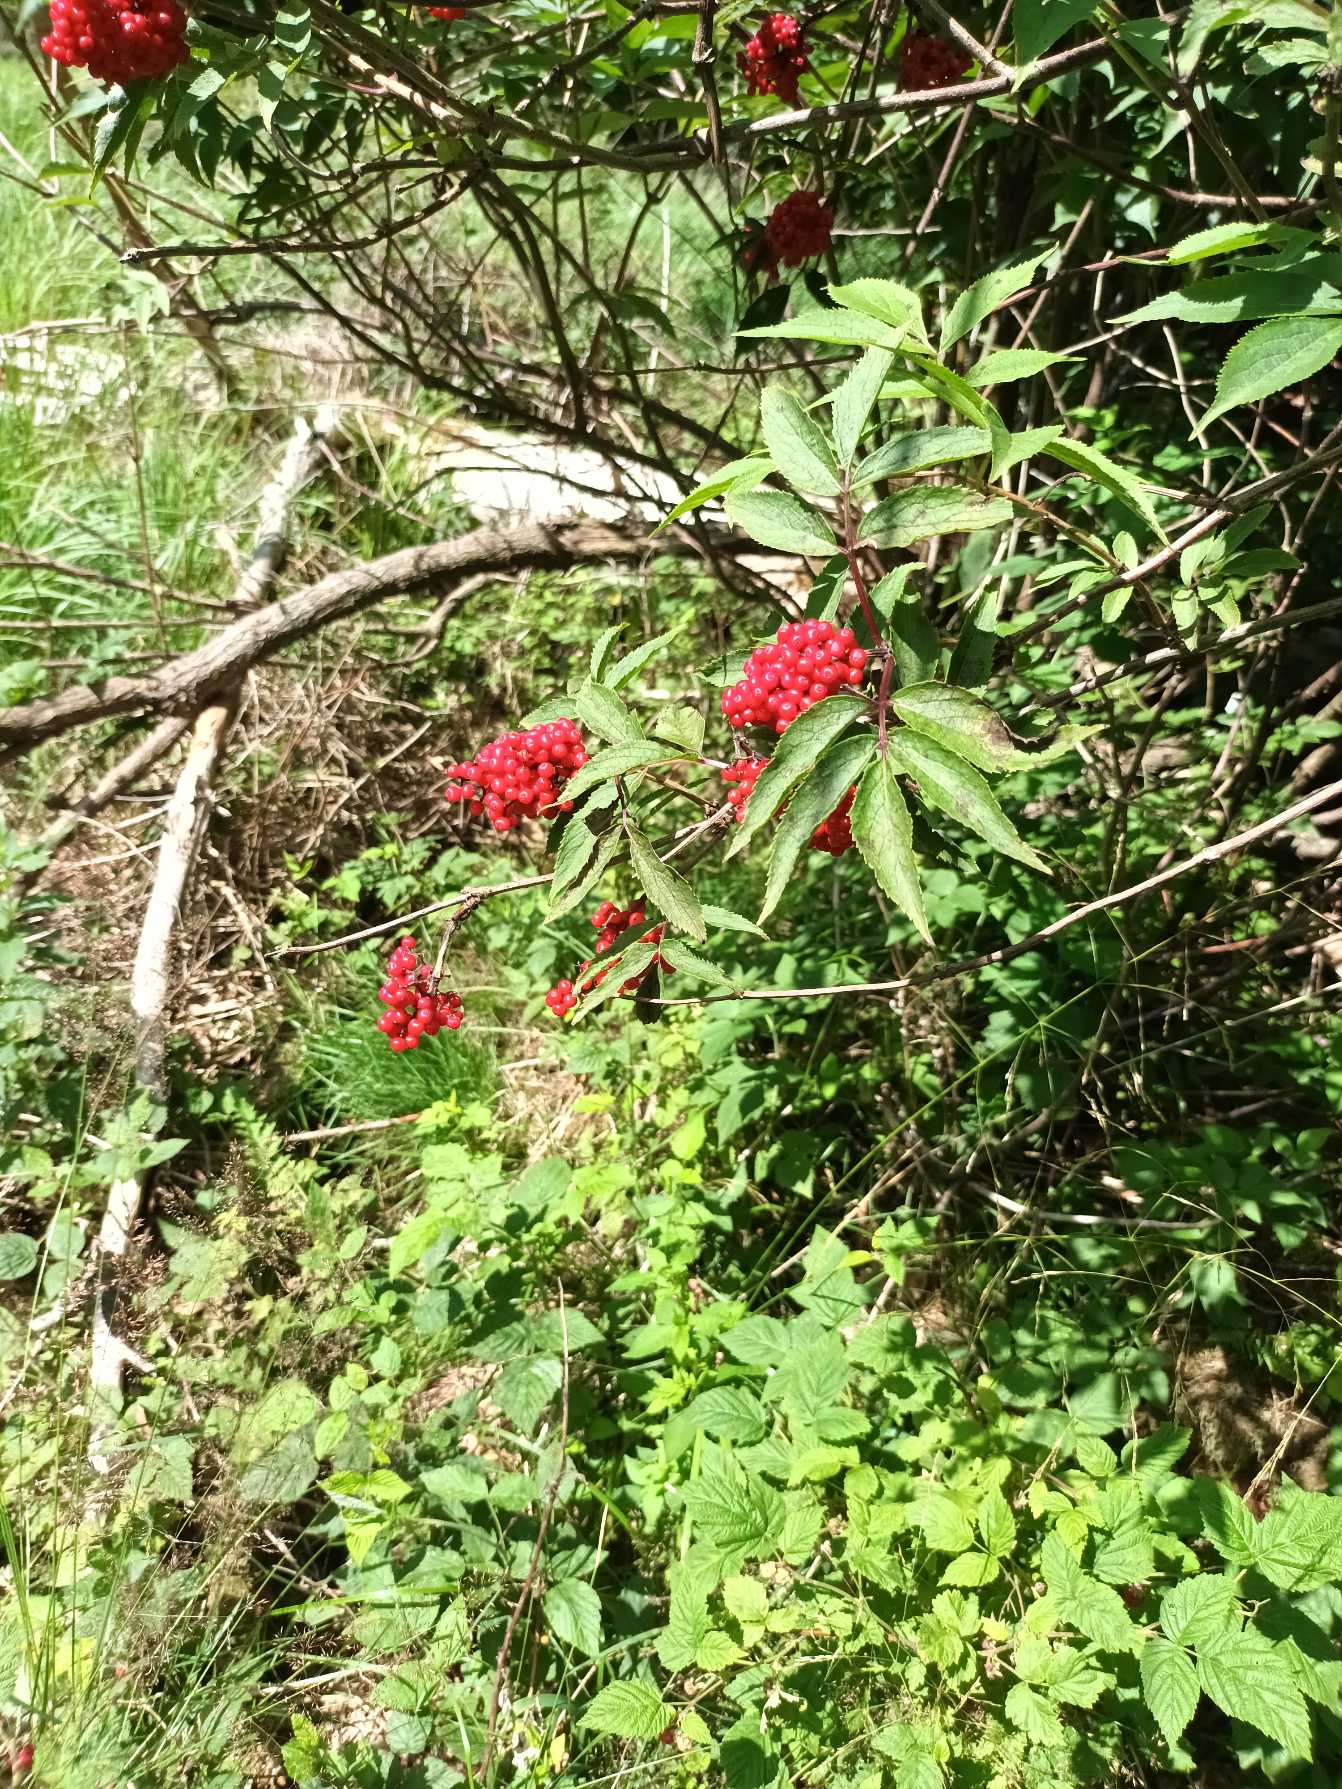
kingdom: Plantae
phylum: Tracheophyta
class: Magnoliopsida
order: Dipsacales
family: Viburnaceae
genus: Sambucus
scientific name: Sambucus racemosa
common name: Drue-hyld
